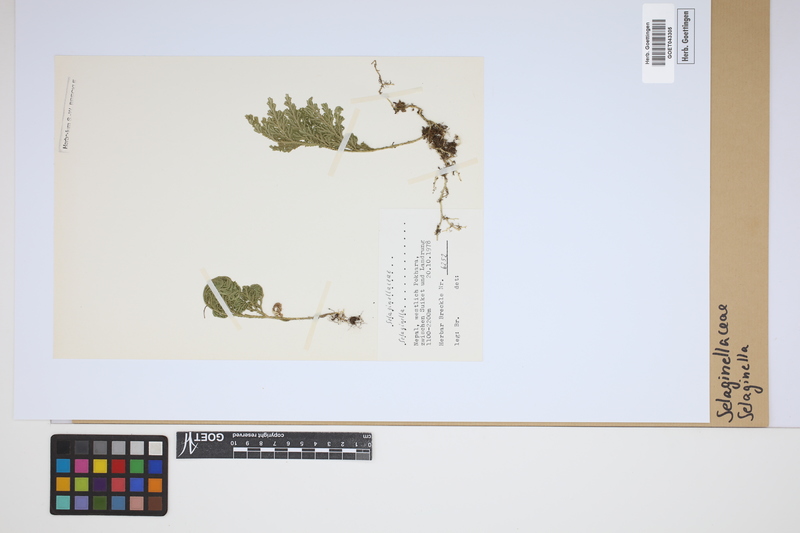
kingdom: Plantae
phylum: Tracheophyta
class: Lycopodiopsida
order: Selaginellales
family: Selaginellaceae
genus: Selaginella
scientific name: Selaginella
